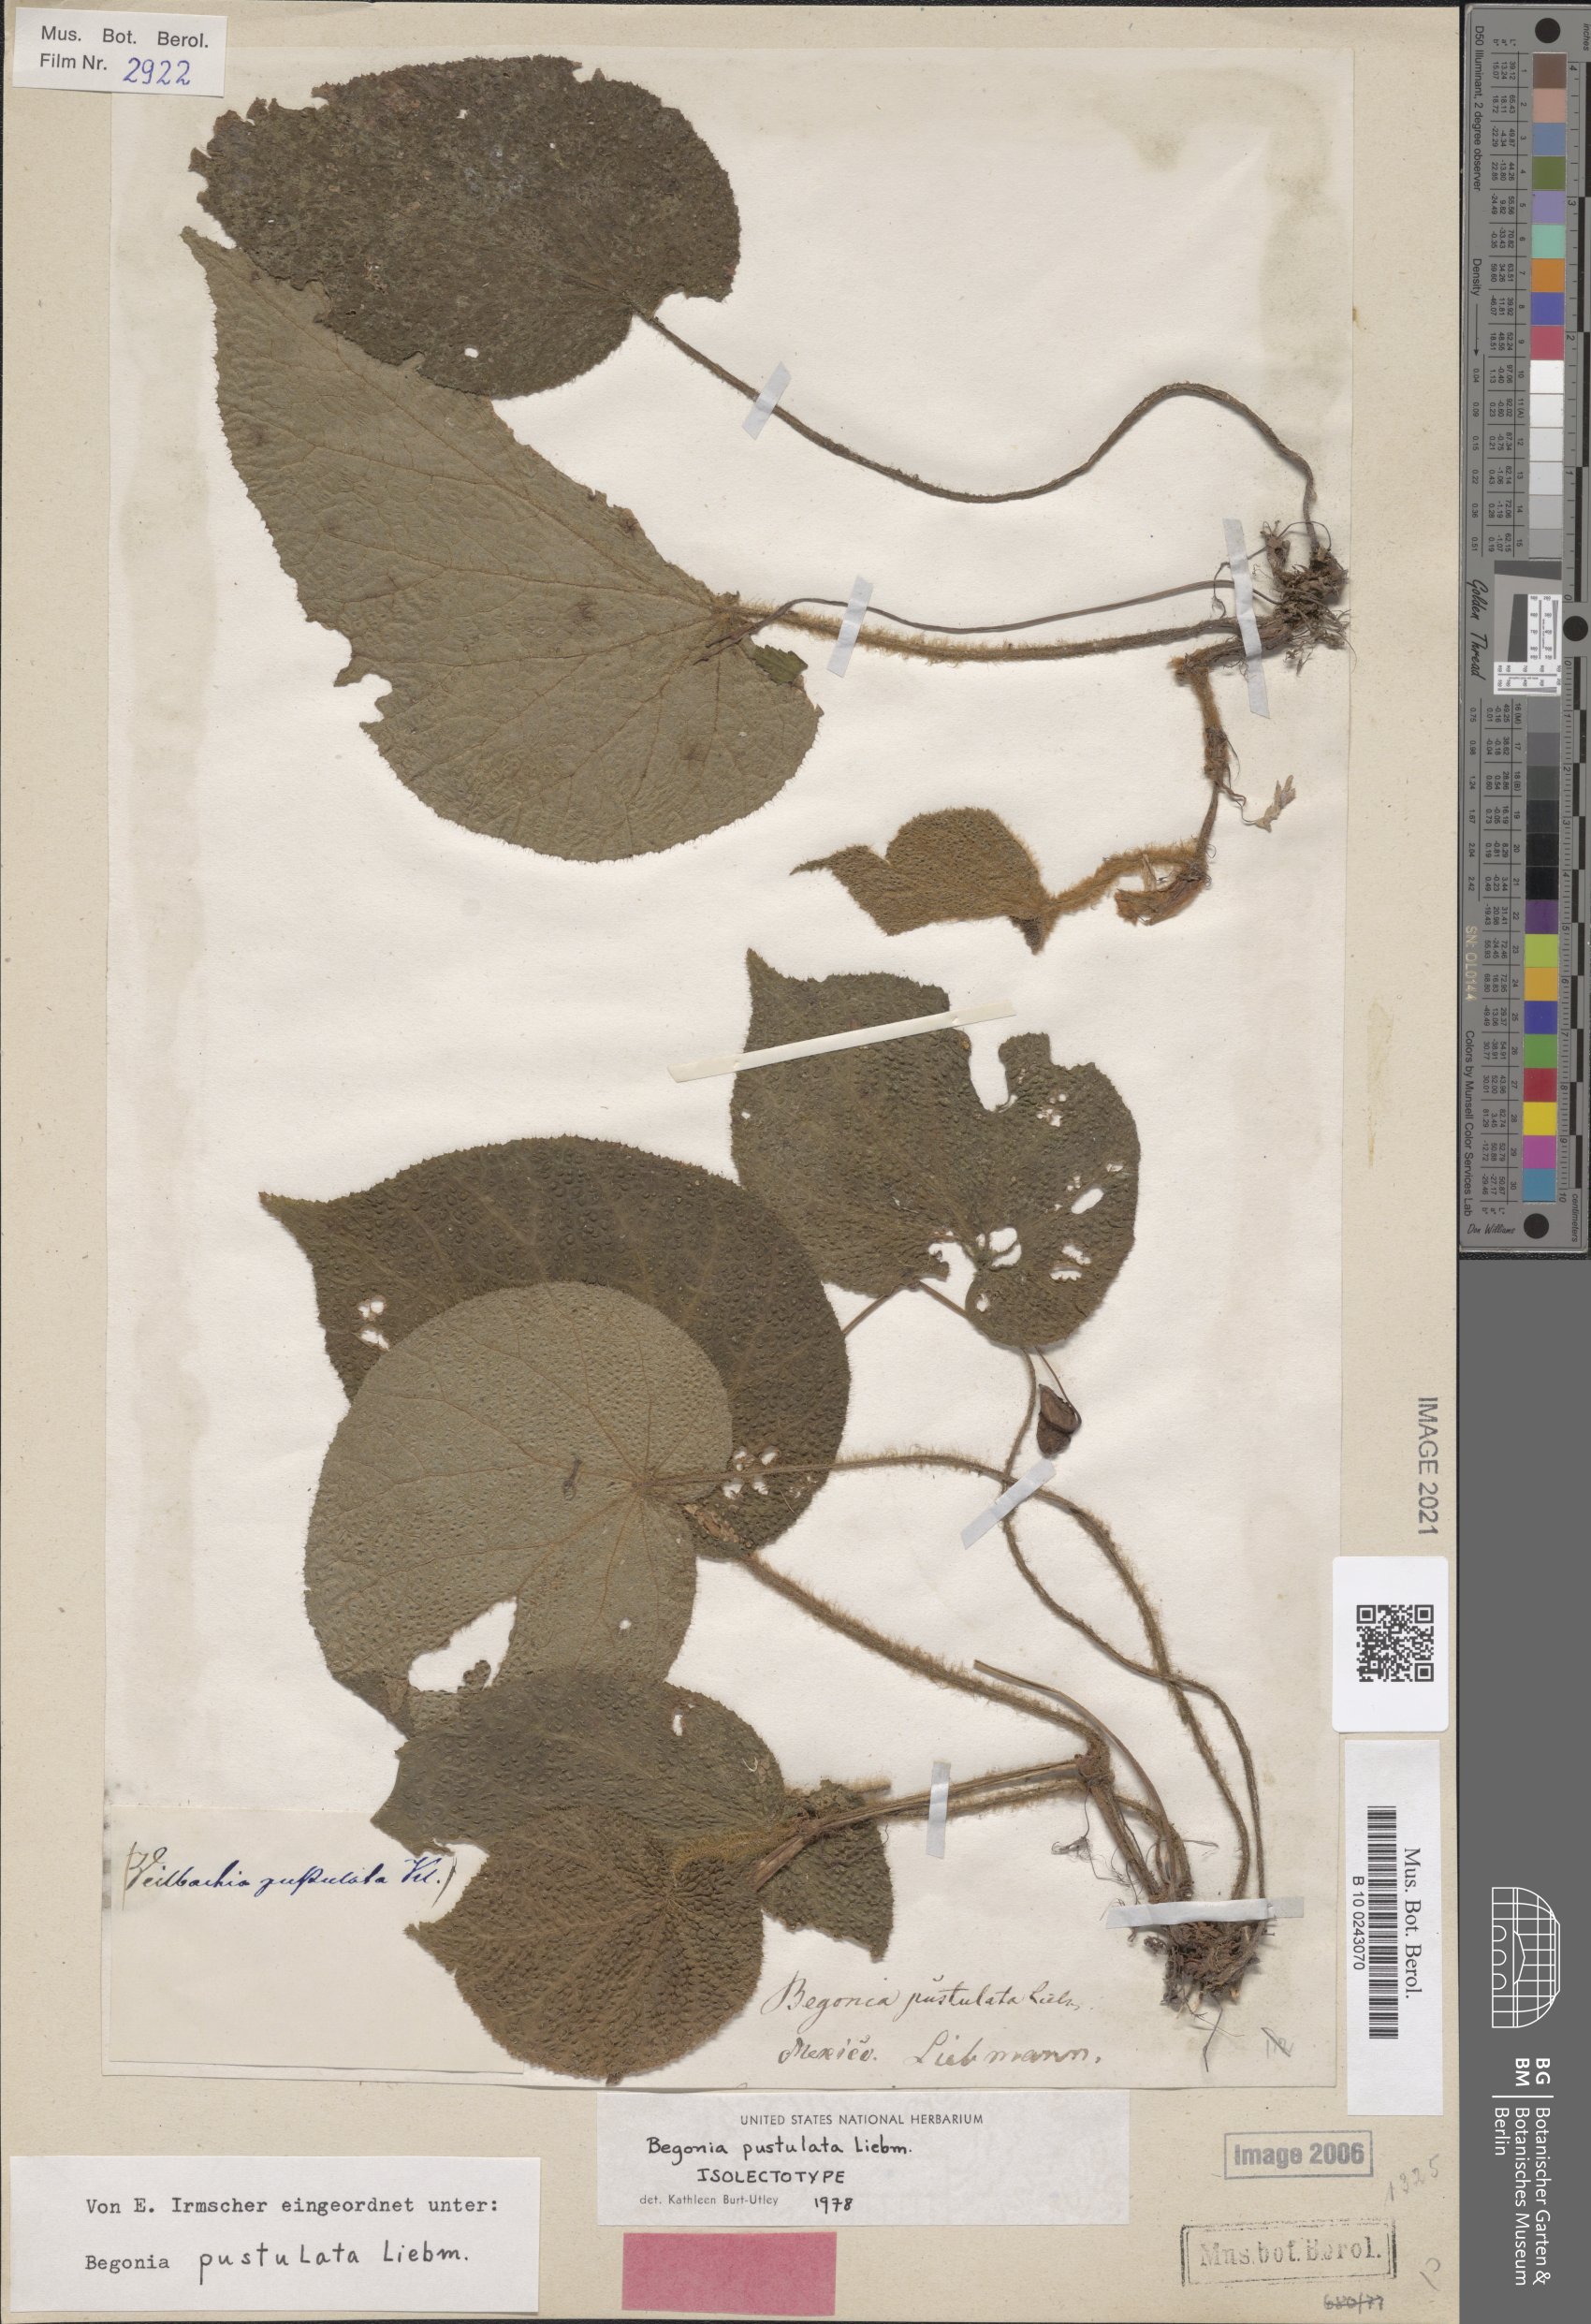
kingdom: Plantae
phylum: Tracheophyta
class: Magnoliopsida
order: Cucurbitales
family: Begoniaceae
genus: Begonia
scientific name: Begonia pustulata
